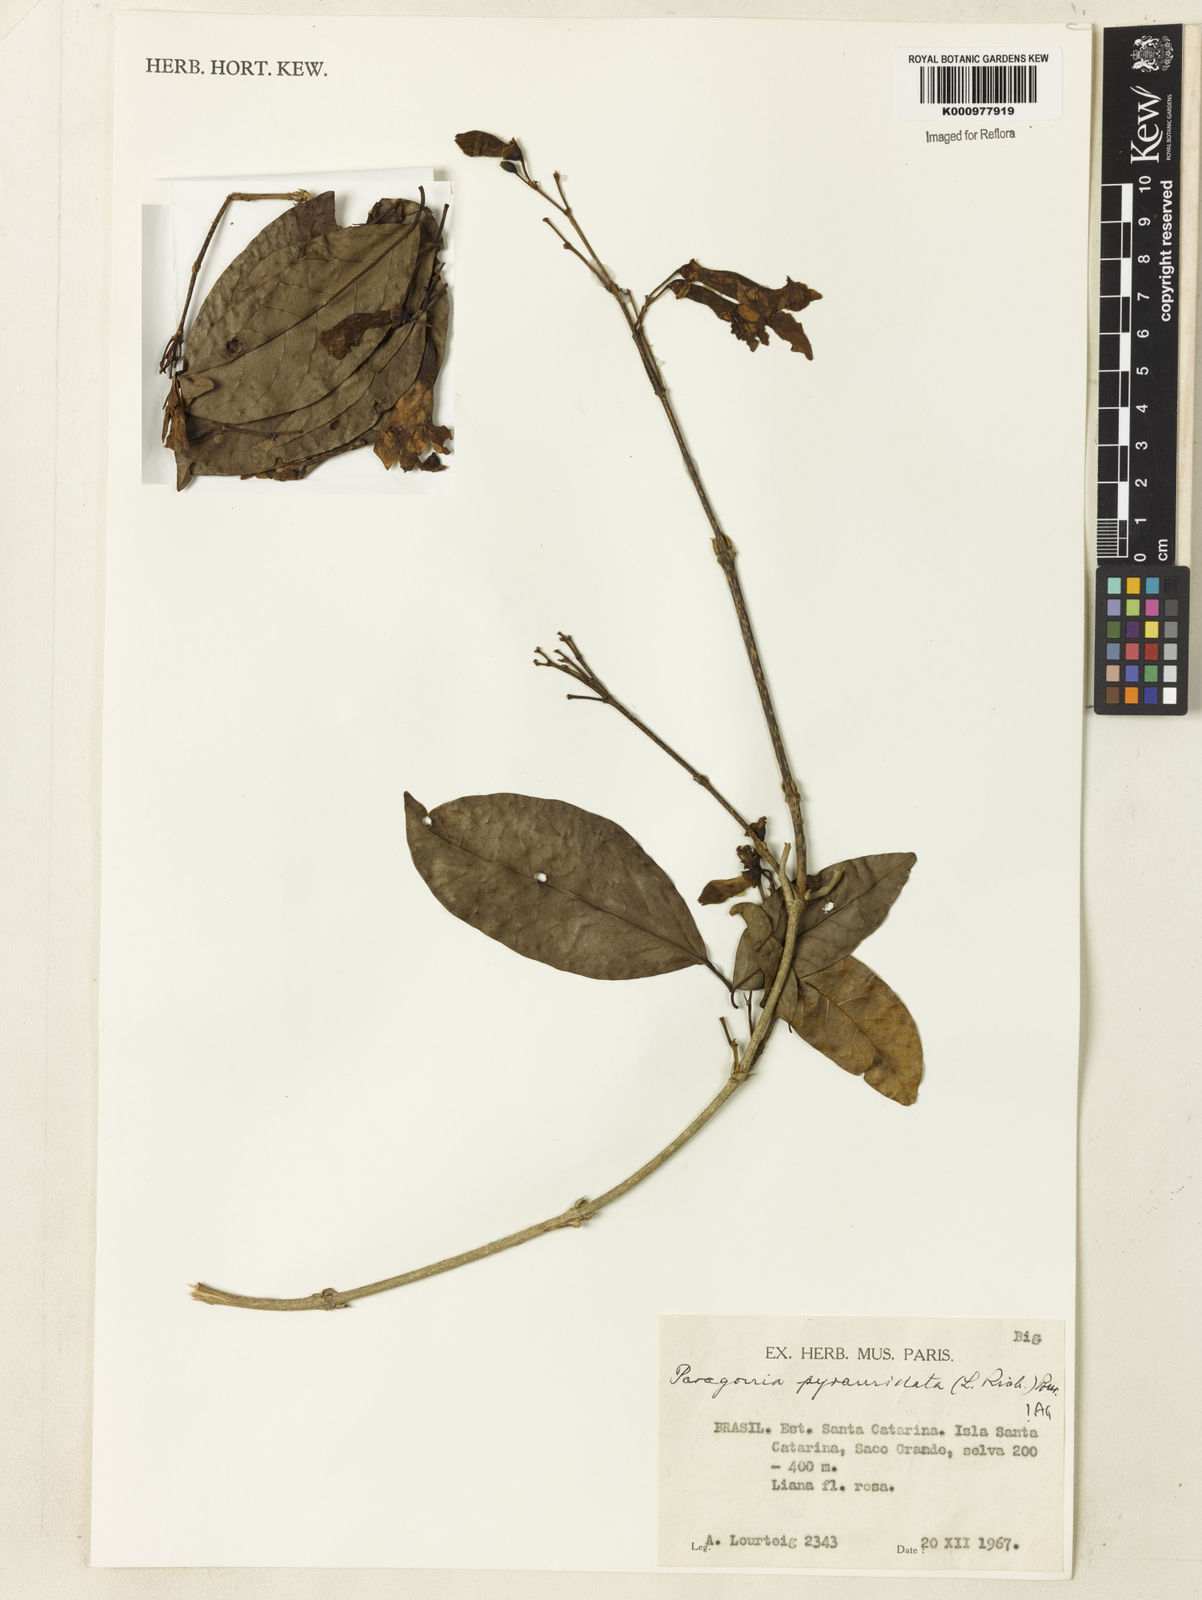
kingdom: Plantae
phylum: Tracheophyta
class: Magnoliopsida
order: Lamiales
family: Bignoniaceae
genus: Tanaecium
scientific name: Tanaecium pyramidatum
